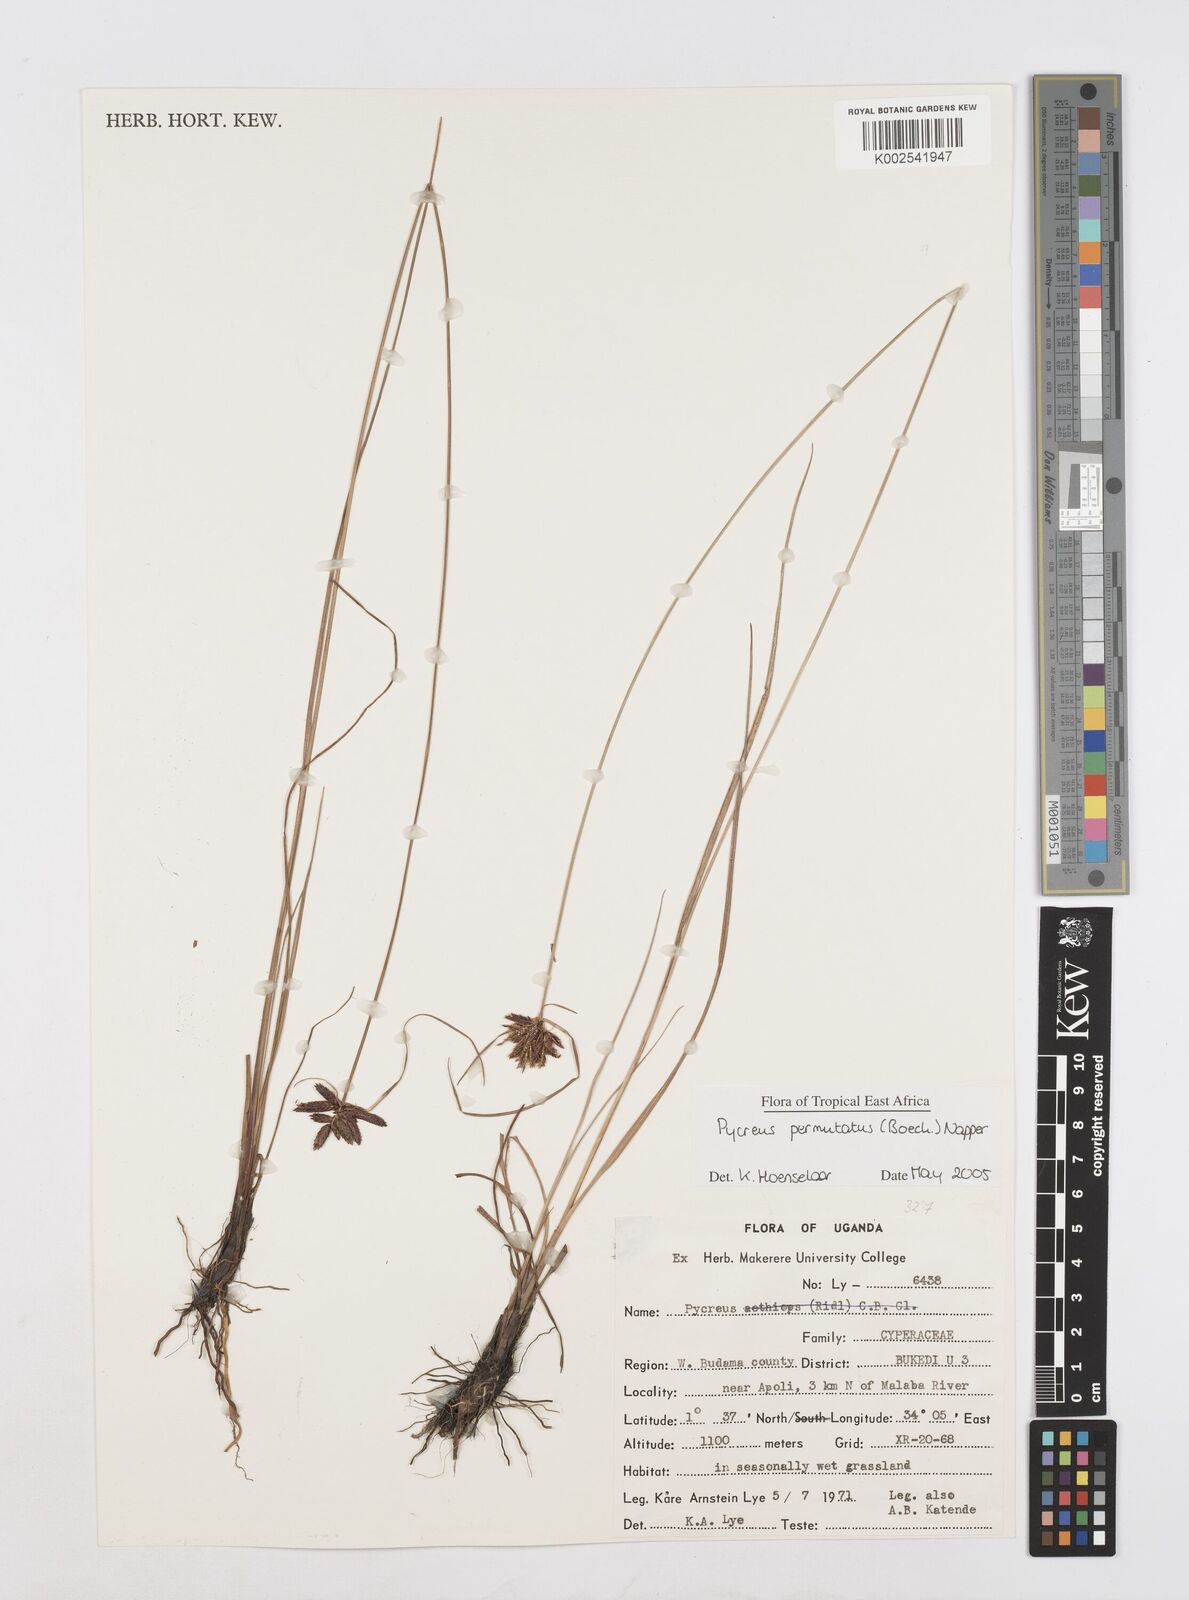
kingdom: Plantae
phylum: Tracheophyta
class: Liliopsida
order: Poales
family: Cyperaceae
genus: Cyperus
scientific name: Cyperus nigricans
